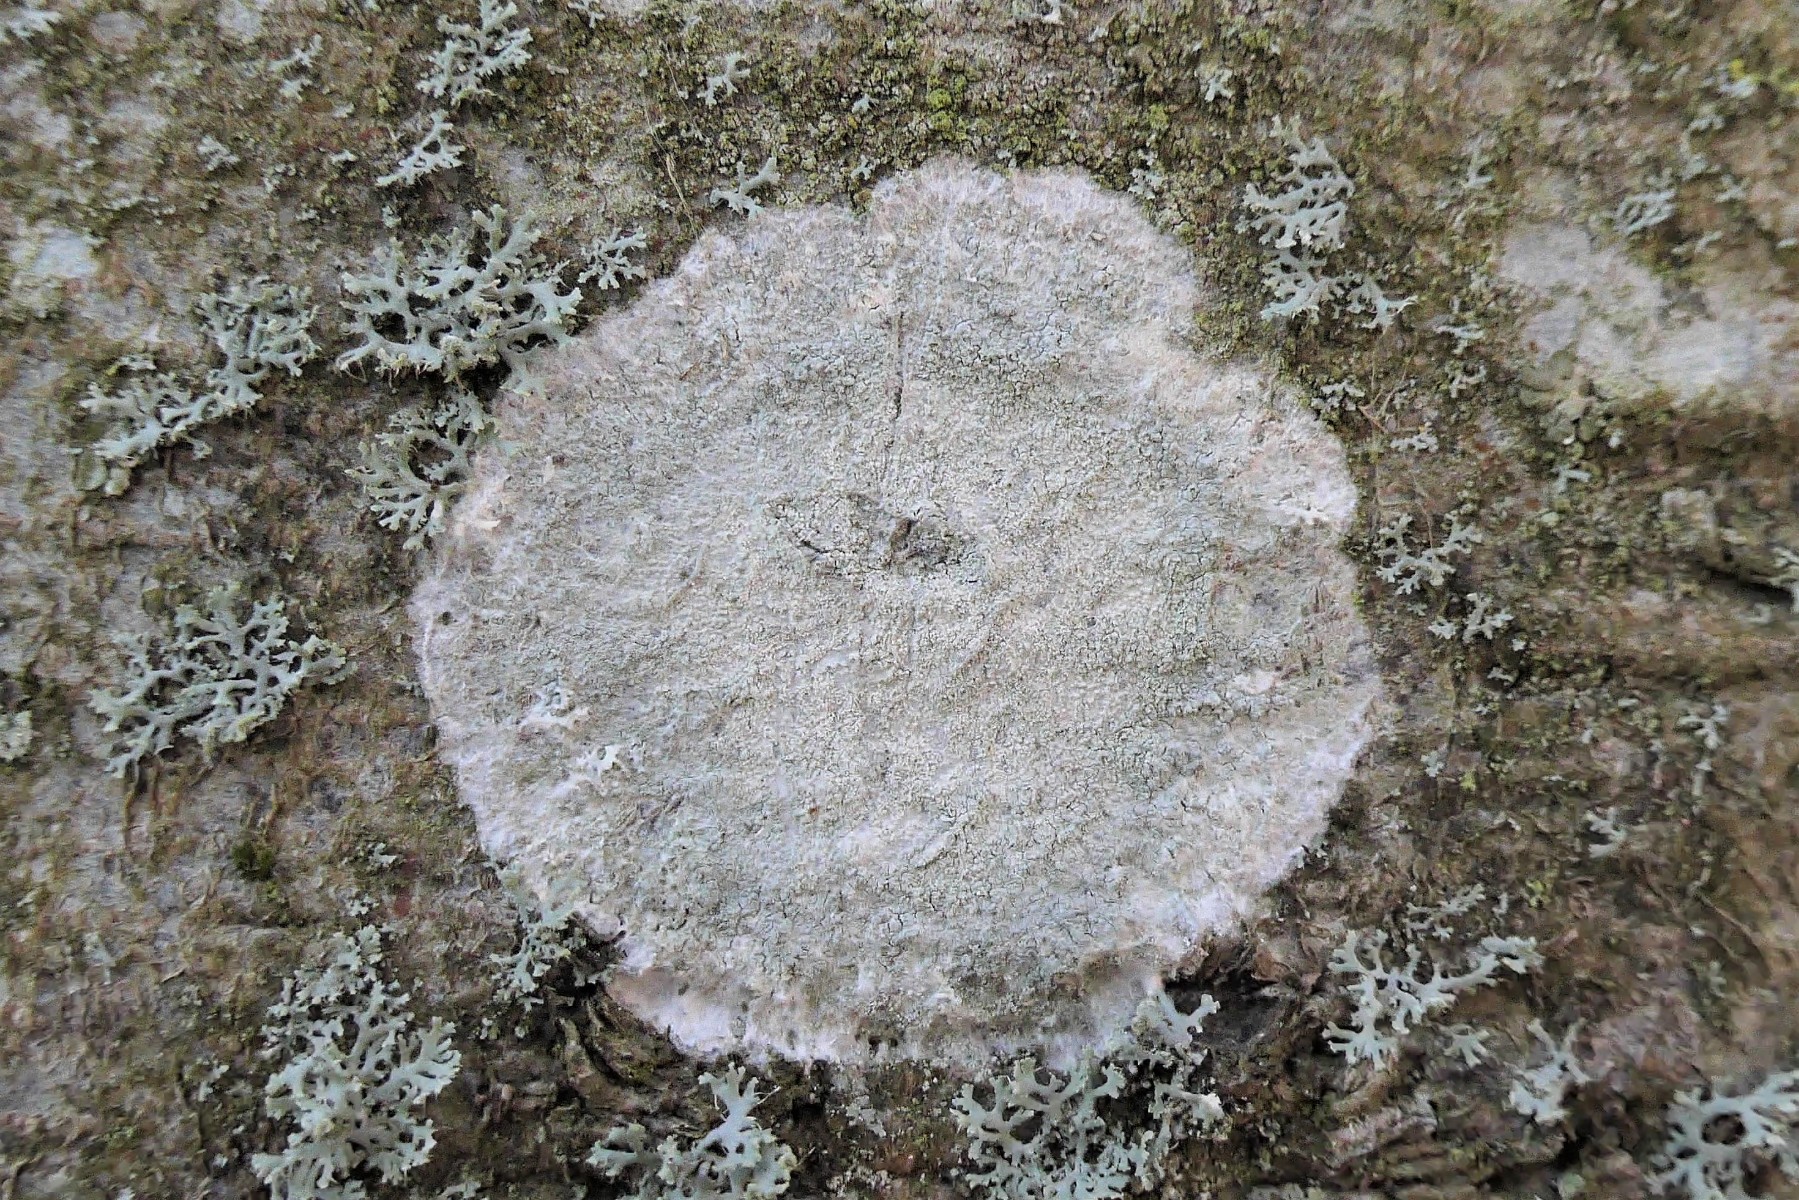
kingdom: Fungi
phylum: Ascomycota
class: Lecanoromycetes
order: Ostropales
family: Phlyctidaceae
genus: Phlyctis
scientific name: Phlyctis argena
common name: almindelig sølvlav
